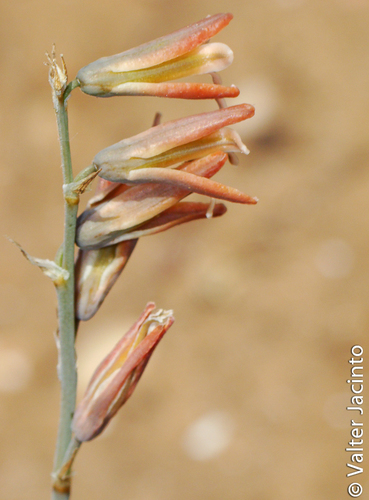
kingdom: Plantae
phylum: Tracheophyta
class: Liliopsida
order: Asparagales
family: Asparagaceae
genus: Dipcadi
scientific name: Dipcadi serotinum
